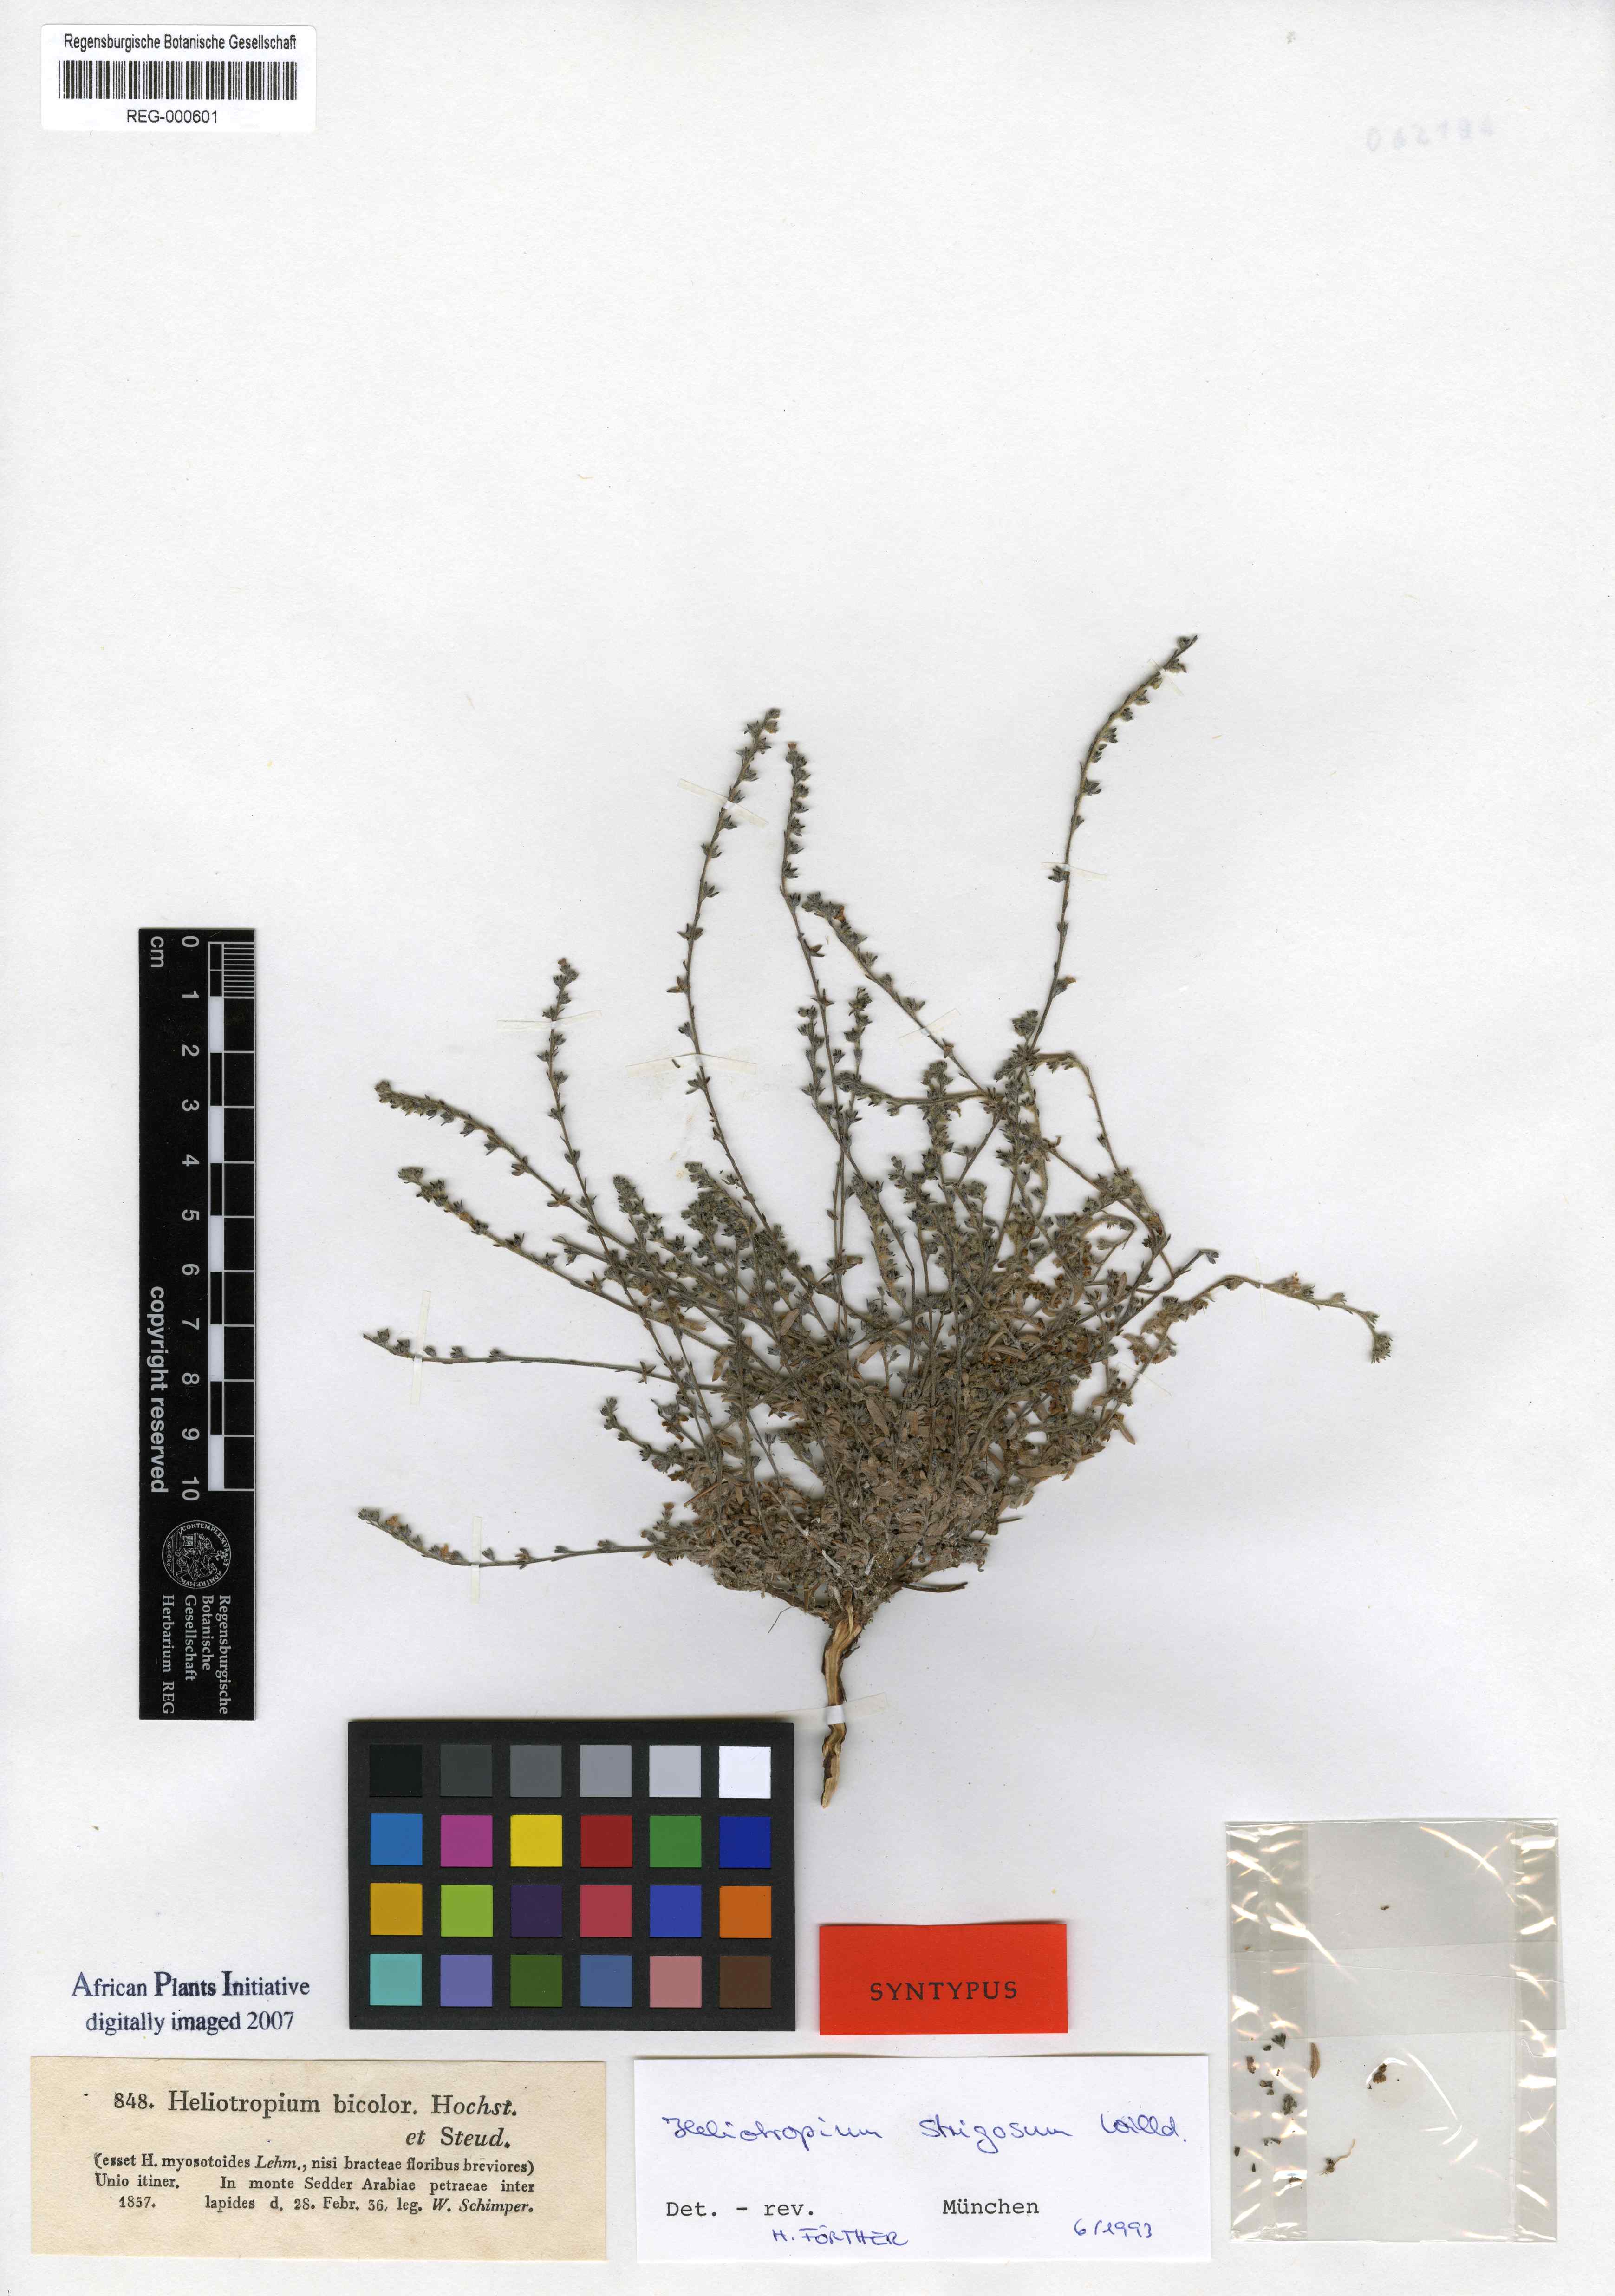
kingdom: Plantae
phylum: Tracheophyta
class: Magnoliopsida
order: Boraginales
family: Heliotropiaceae
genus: Euploca
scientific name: Euploca strigosa
